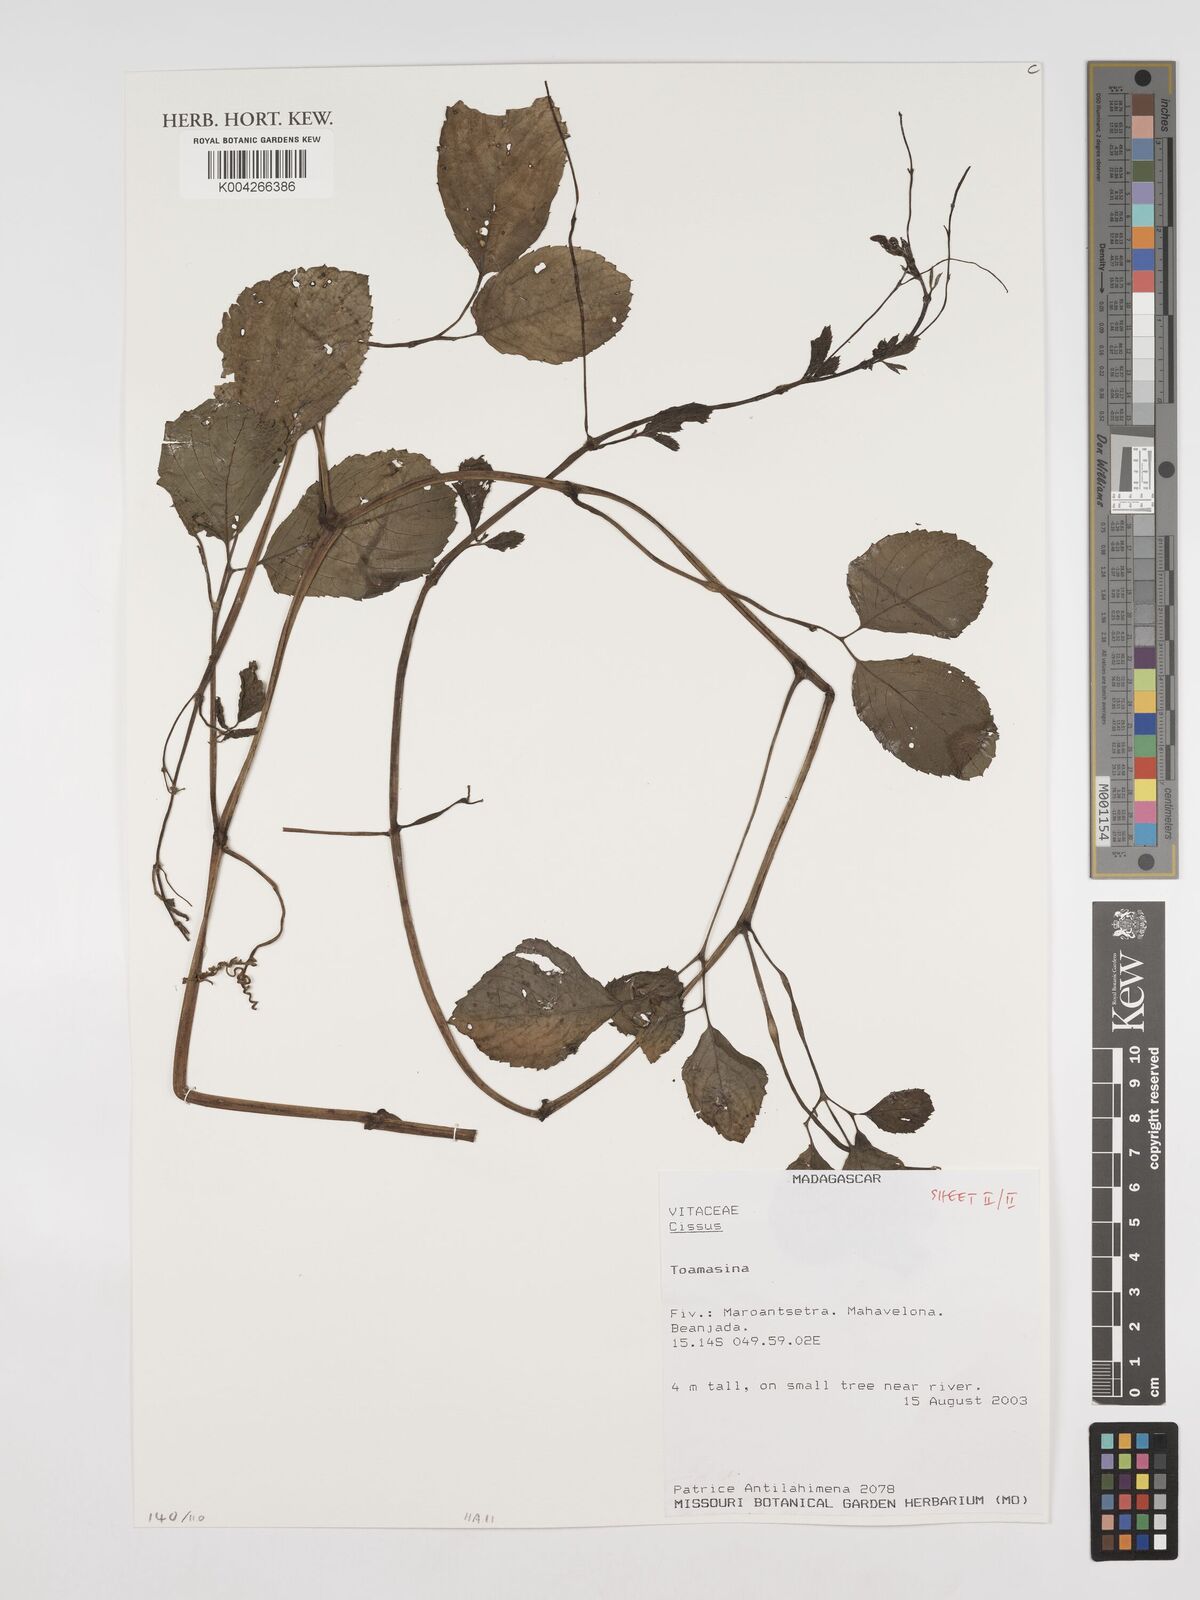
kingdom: Plantae
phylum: Tracheophyta
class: Magnoliopsida
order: Vitales
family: Vitaceae
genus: Cissus
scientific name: Cissus
